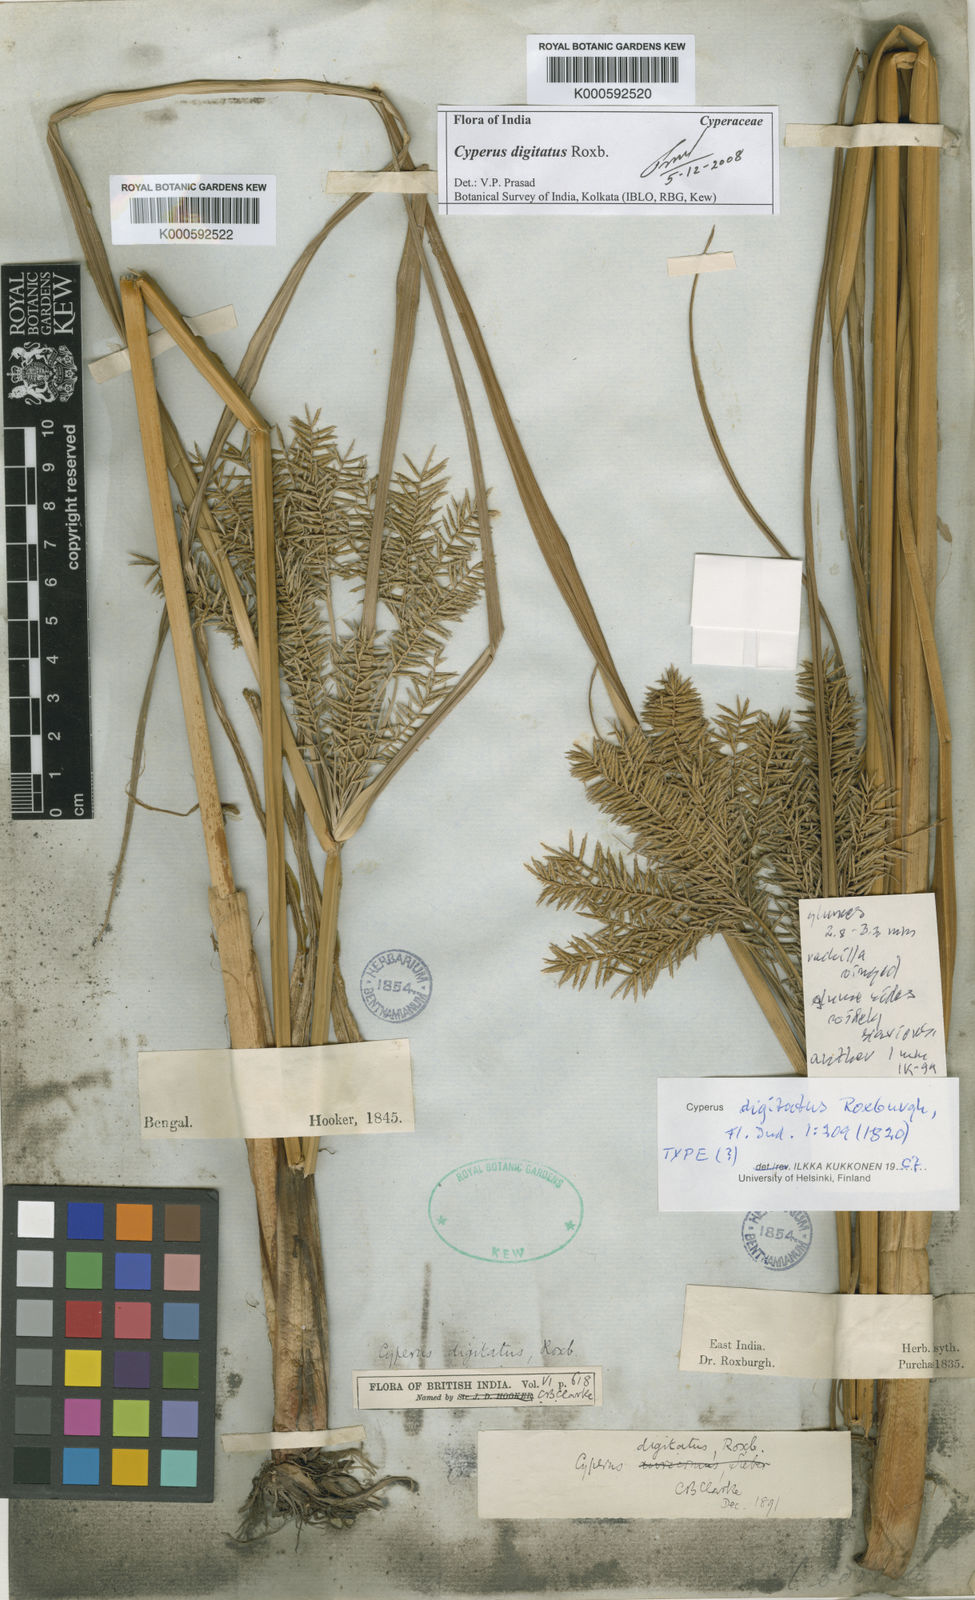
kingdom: Plantae
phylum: Tracheophyta
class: Liliopsida
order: Poales
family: Cyperaceae
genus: Cyperus
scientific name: Cyperus digitatus
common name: Finger flatsedge
